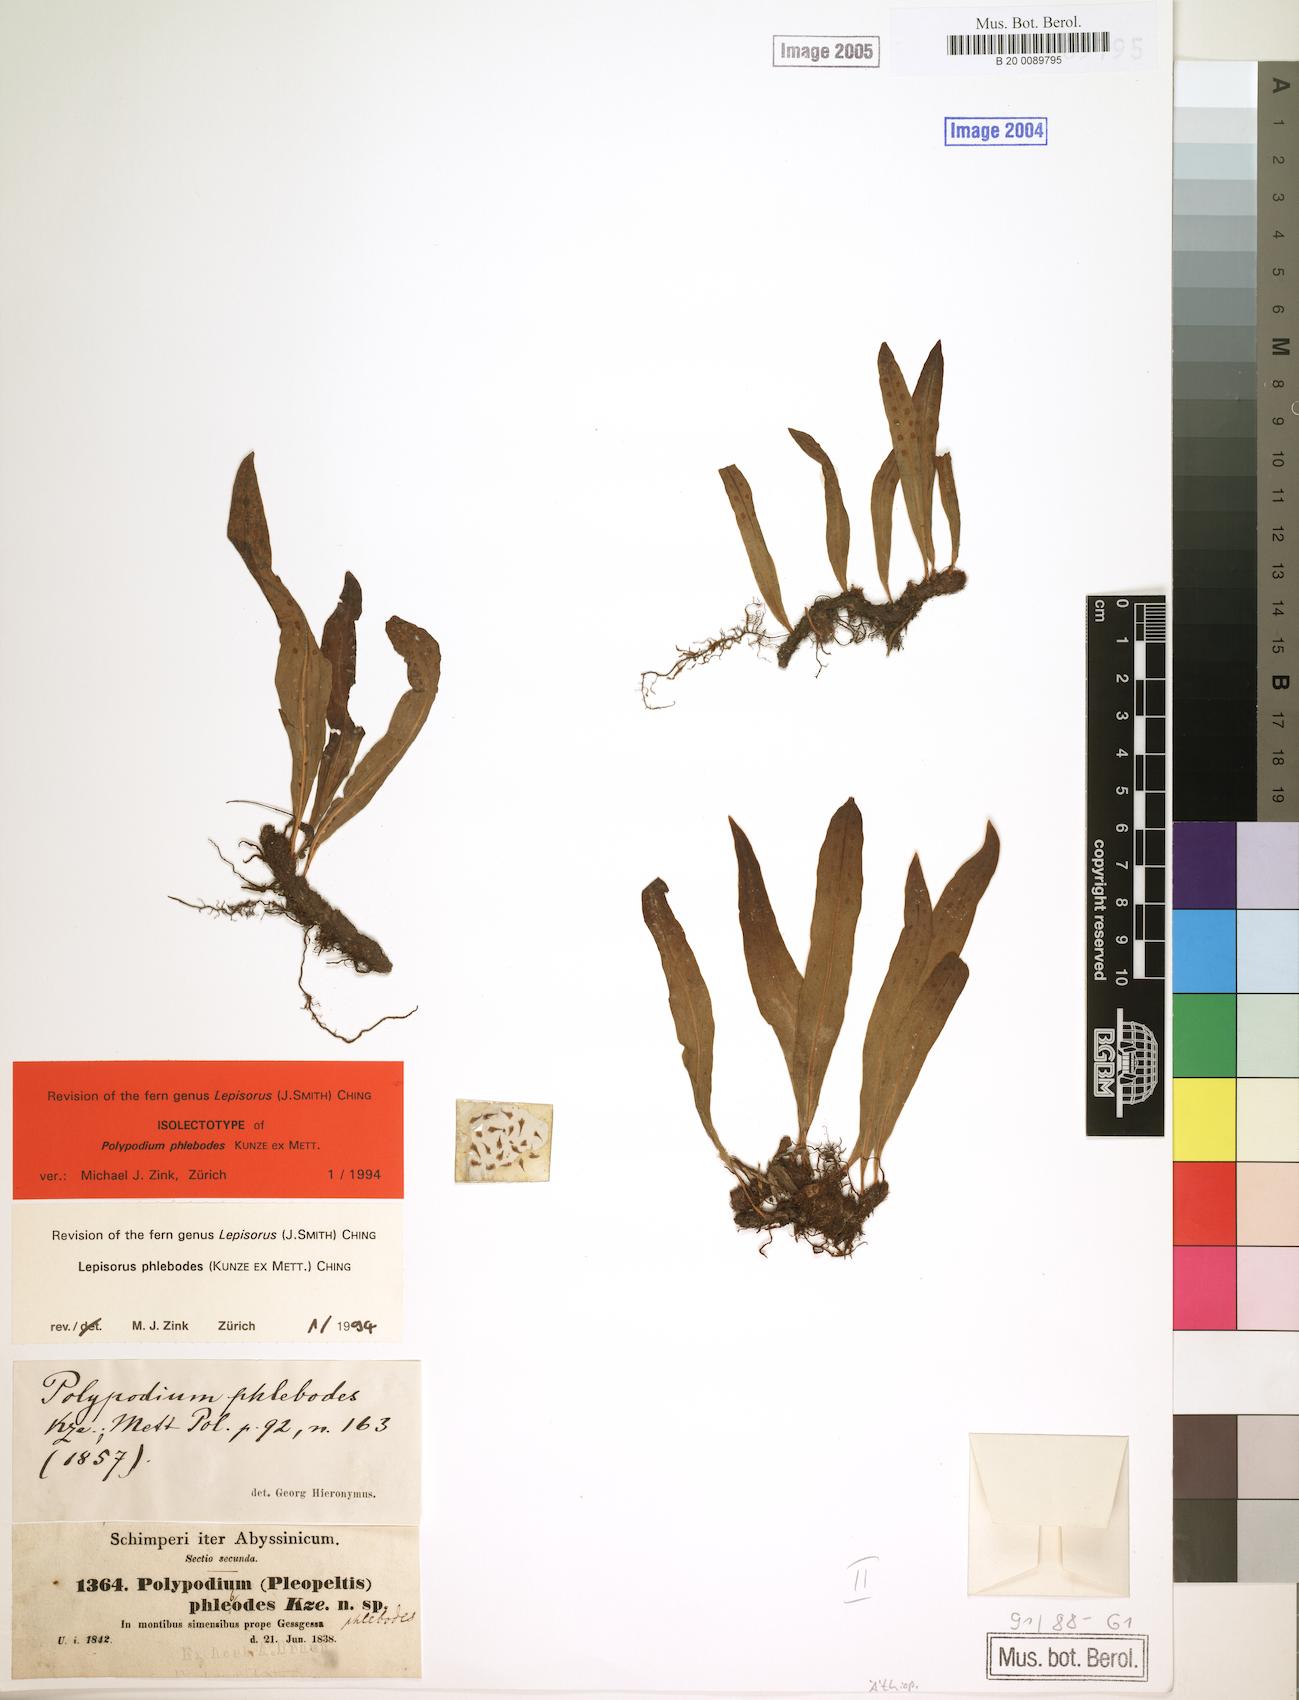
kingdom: Plantae
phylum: Tracheophyta
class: Polypodiopsida
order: Polypodiales
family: Polypodiaceae
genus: Lepisorus
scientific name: Lepisorus excavatus
